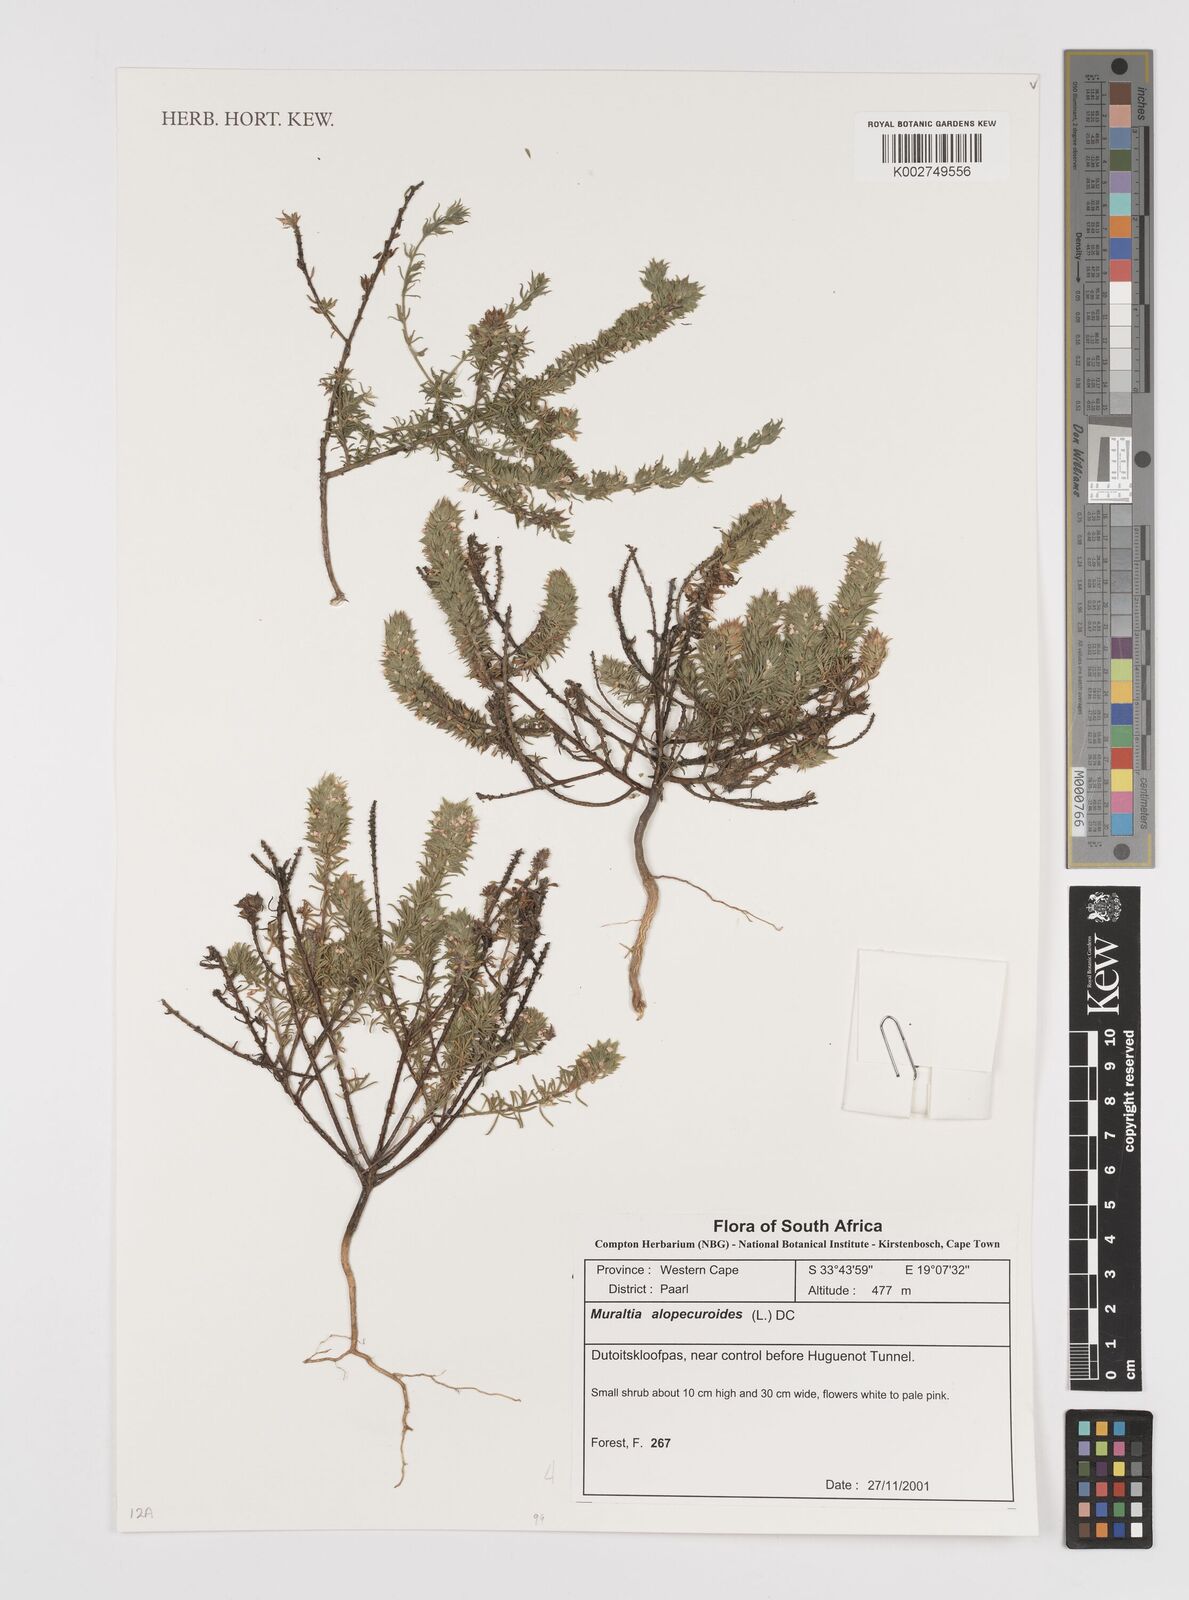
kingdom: Plantae
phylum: Tracheophyta
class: Magnoliopsida
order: Fabales
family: Polygalaceae
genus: Muraltia
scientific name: Muraltia alopecuroides
